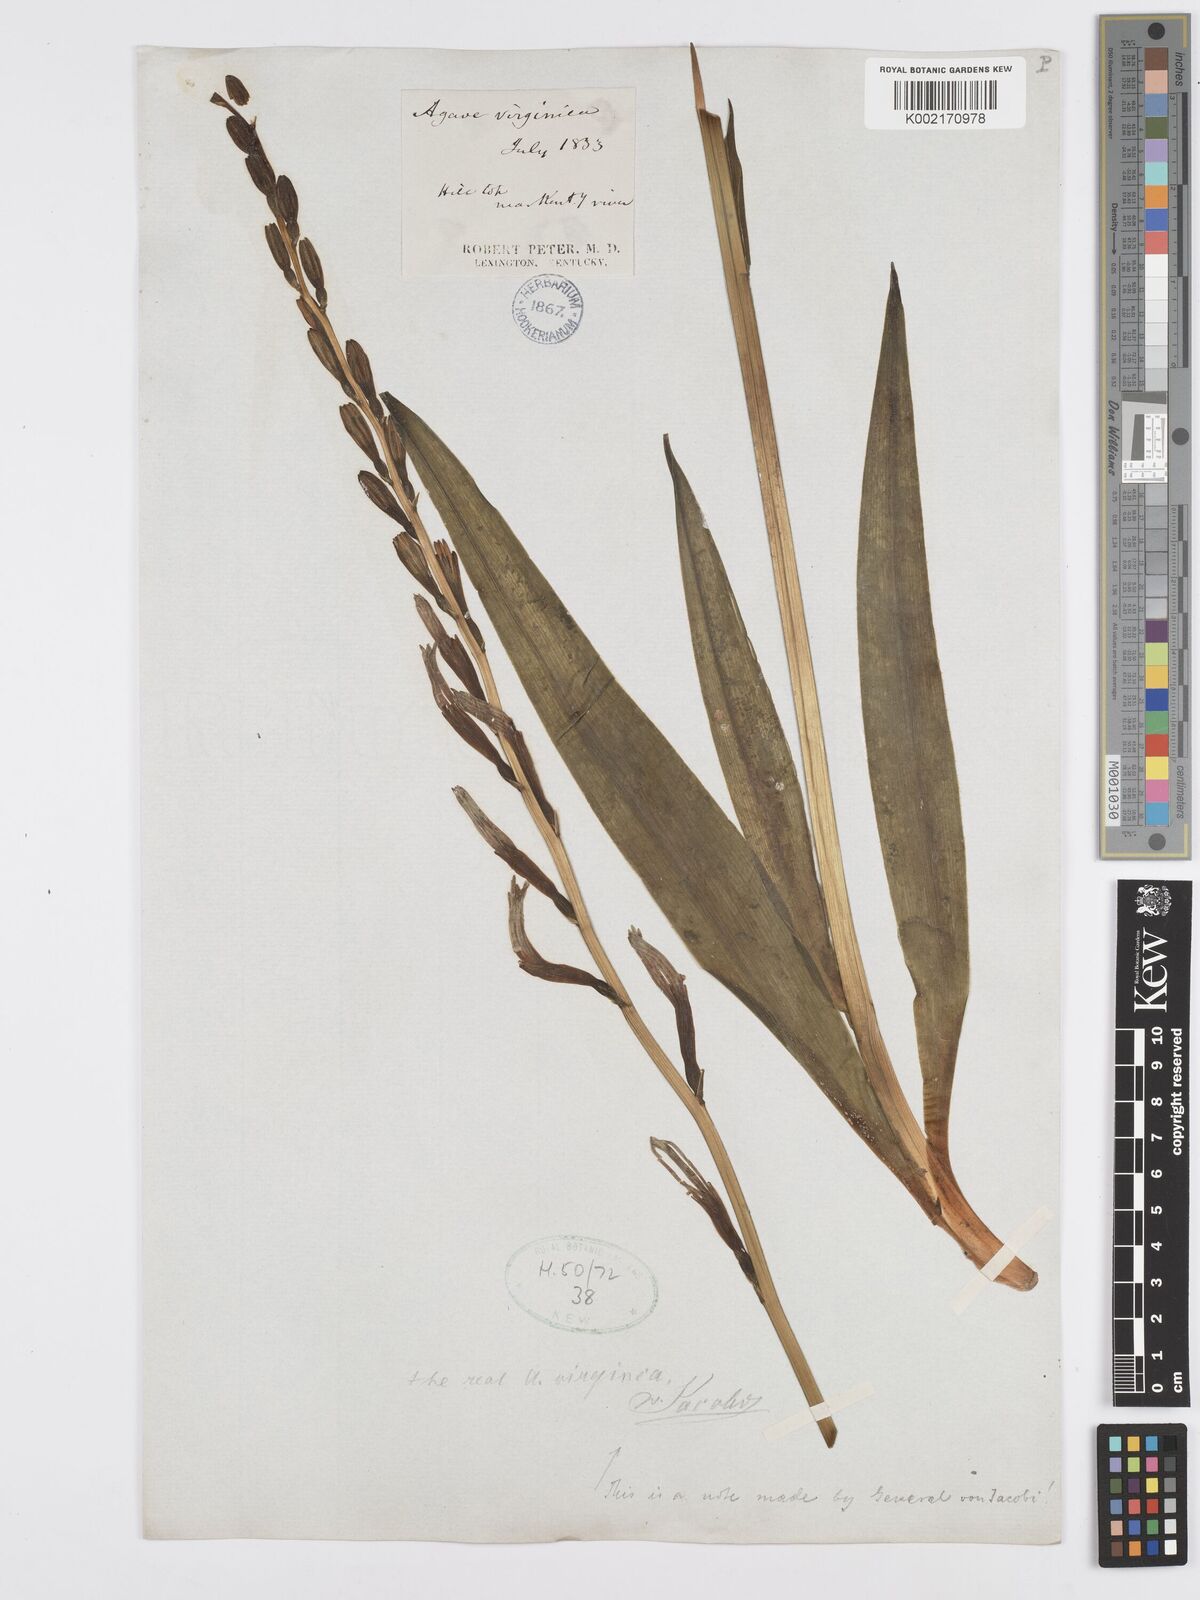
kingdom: Plantae
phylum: Tracheophyta
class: Liliopsida
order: Asparagales
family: Asparagaceae
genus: Agave
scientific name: Agave virginica
